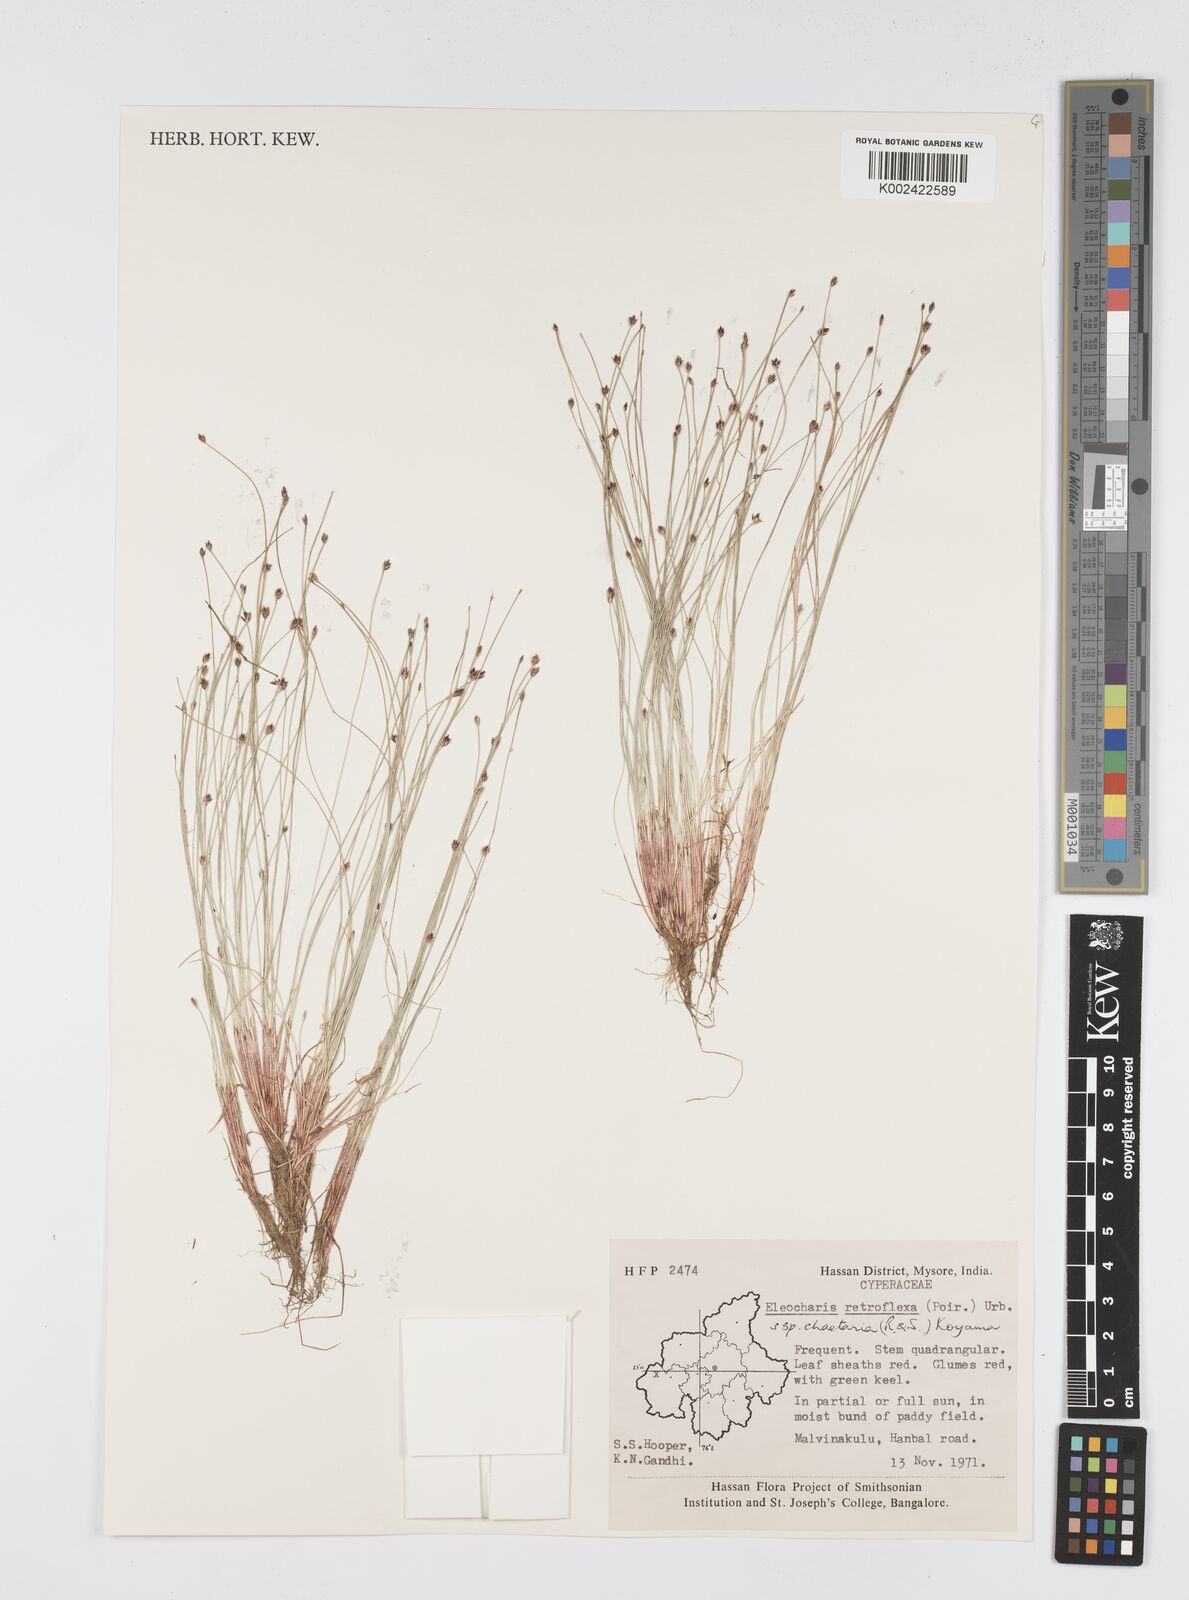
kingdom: Plantae
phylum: Tracheophyta
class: Liliopsida
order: Poales
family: Cyperaceae
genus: Eleocharis
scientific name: Eleocharis retroflexa
